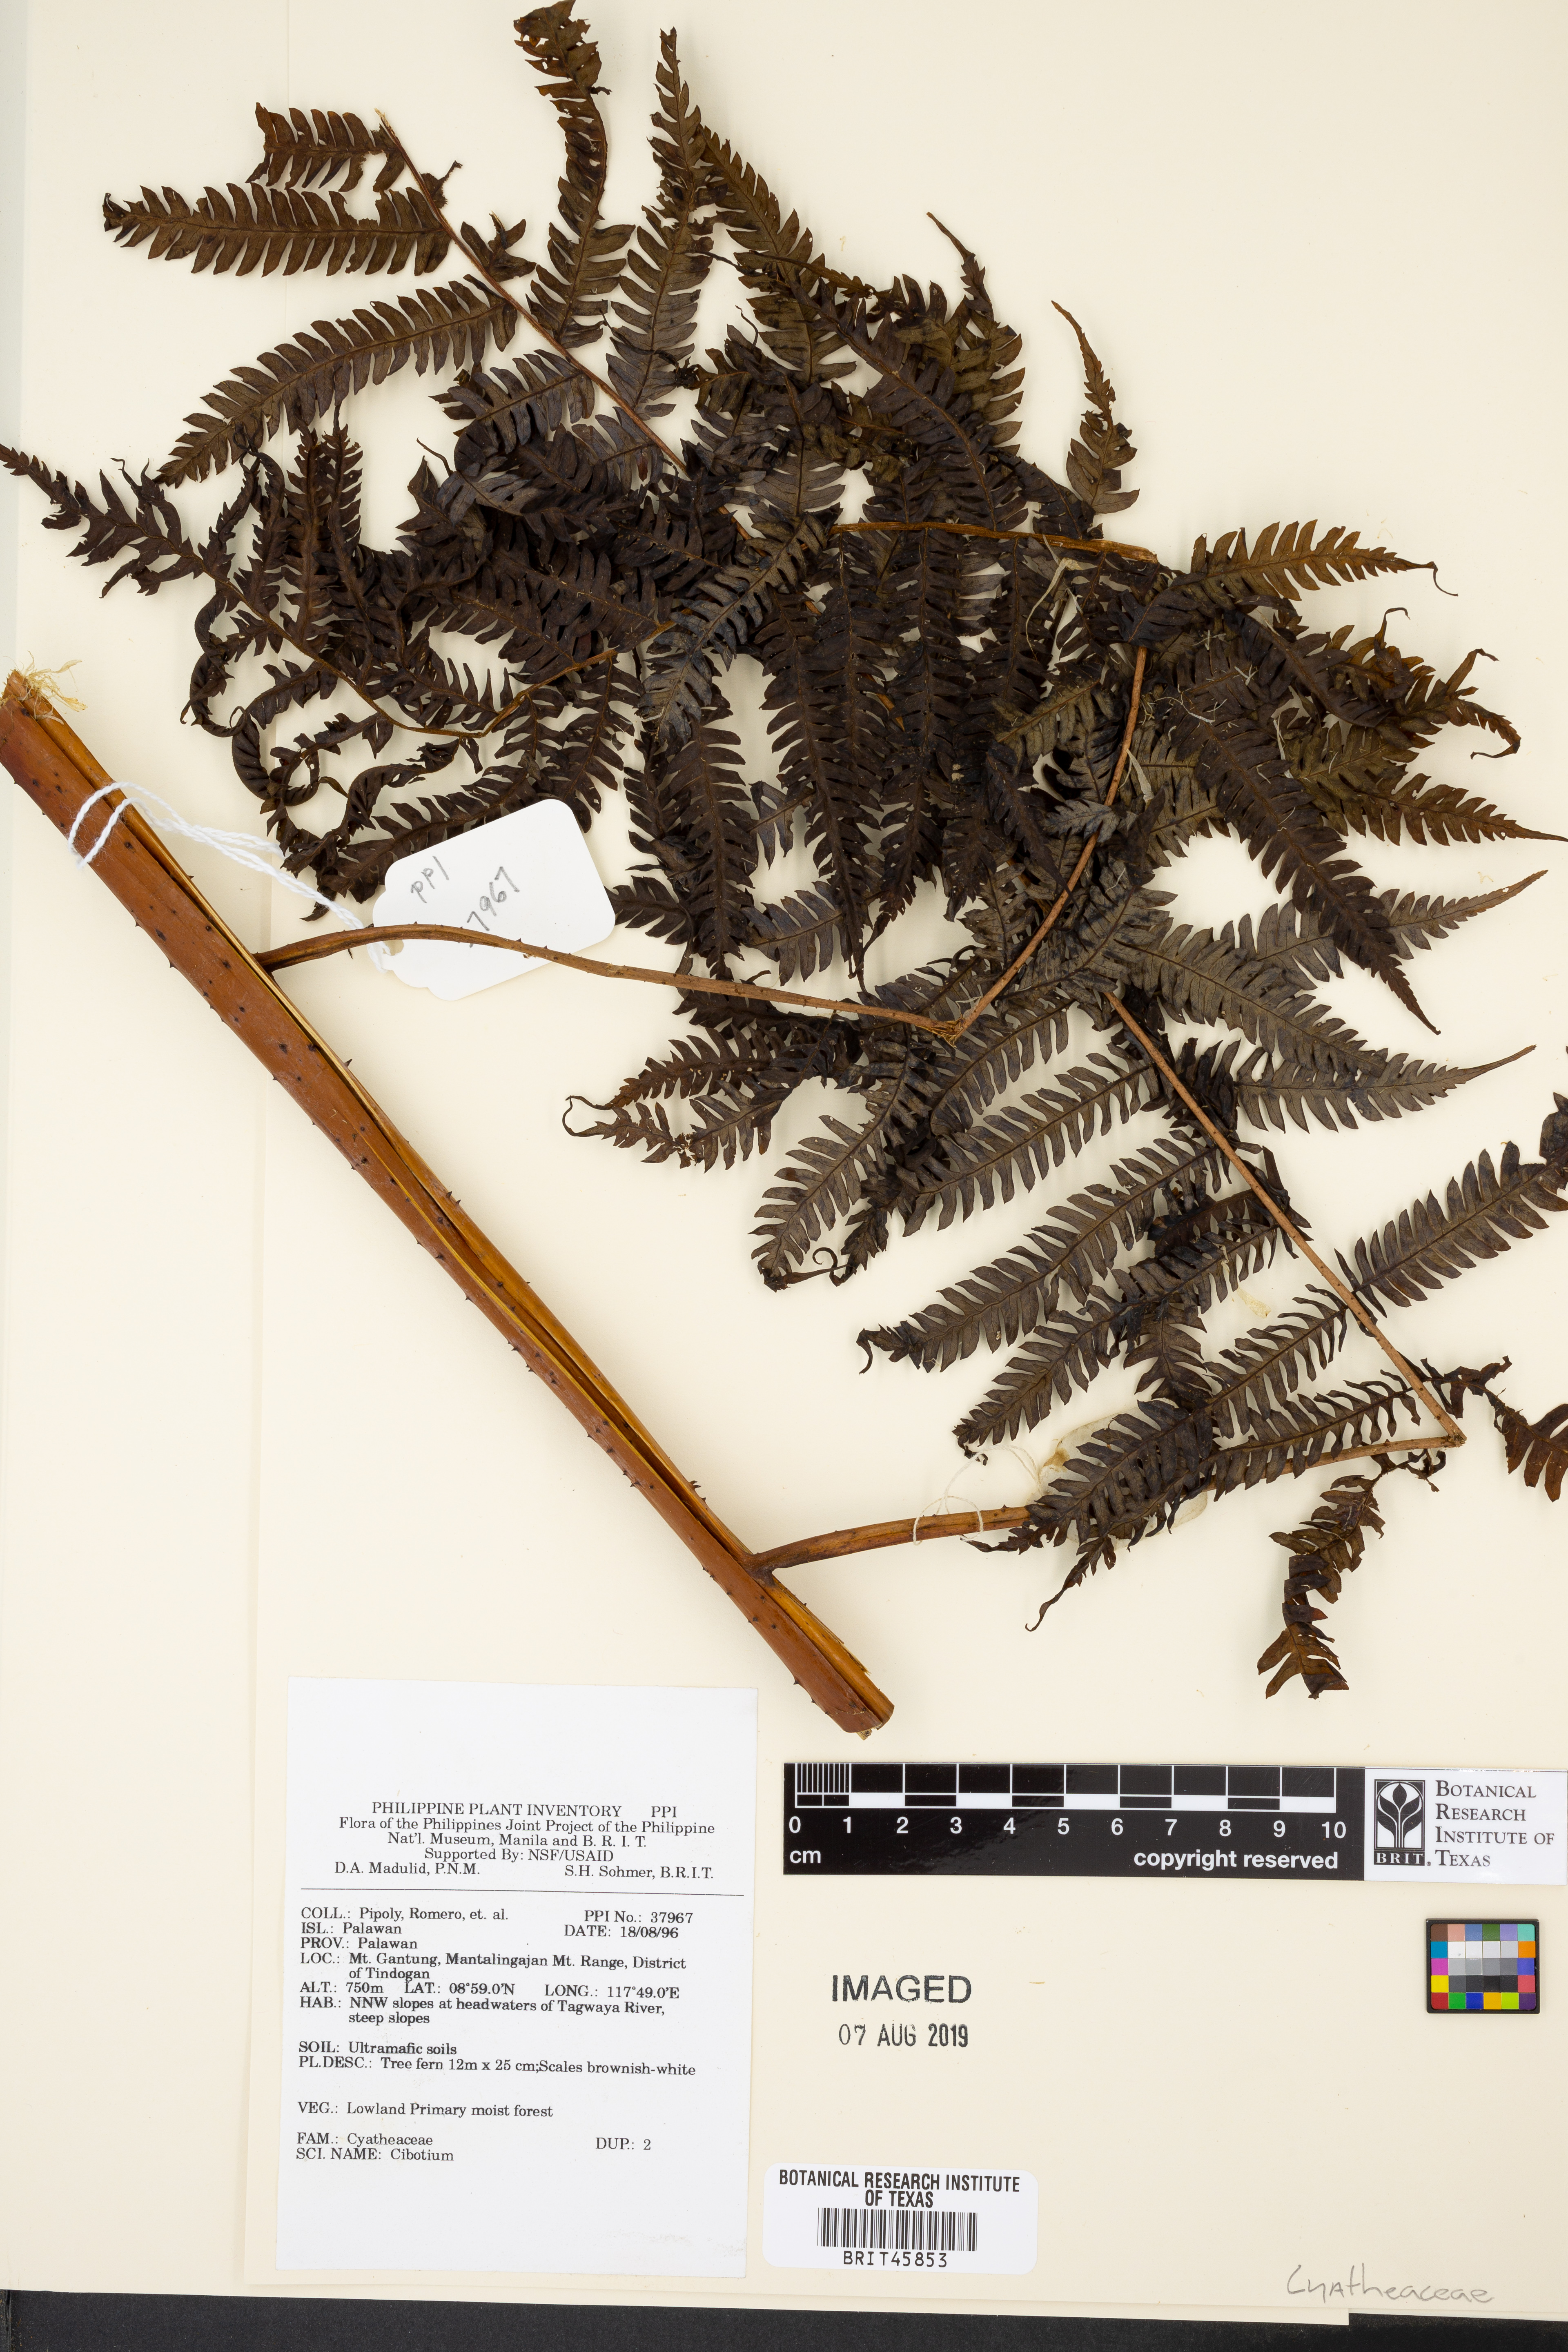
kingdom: Plantae
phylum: Tracheophyta
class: Polypodiopsida
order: Cyatheales
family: Cibotiaceae
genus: Cibotium
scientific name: Cibotium
